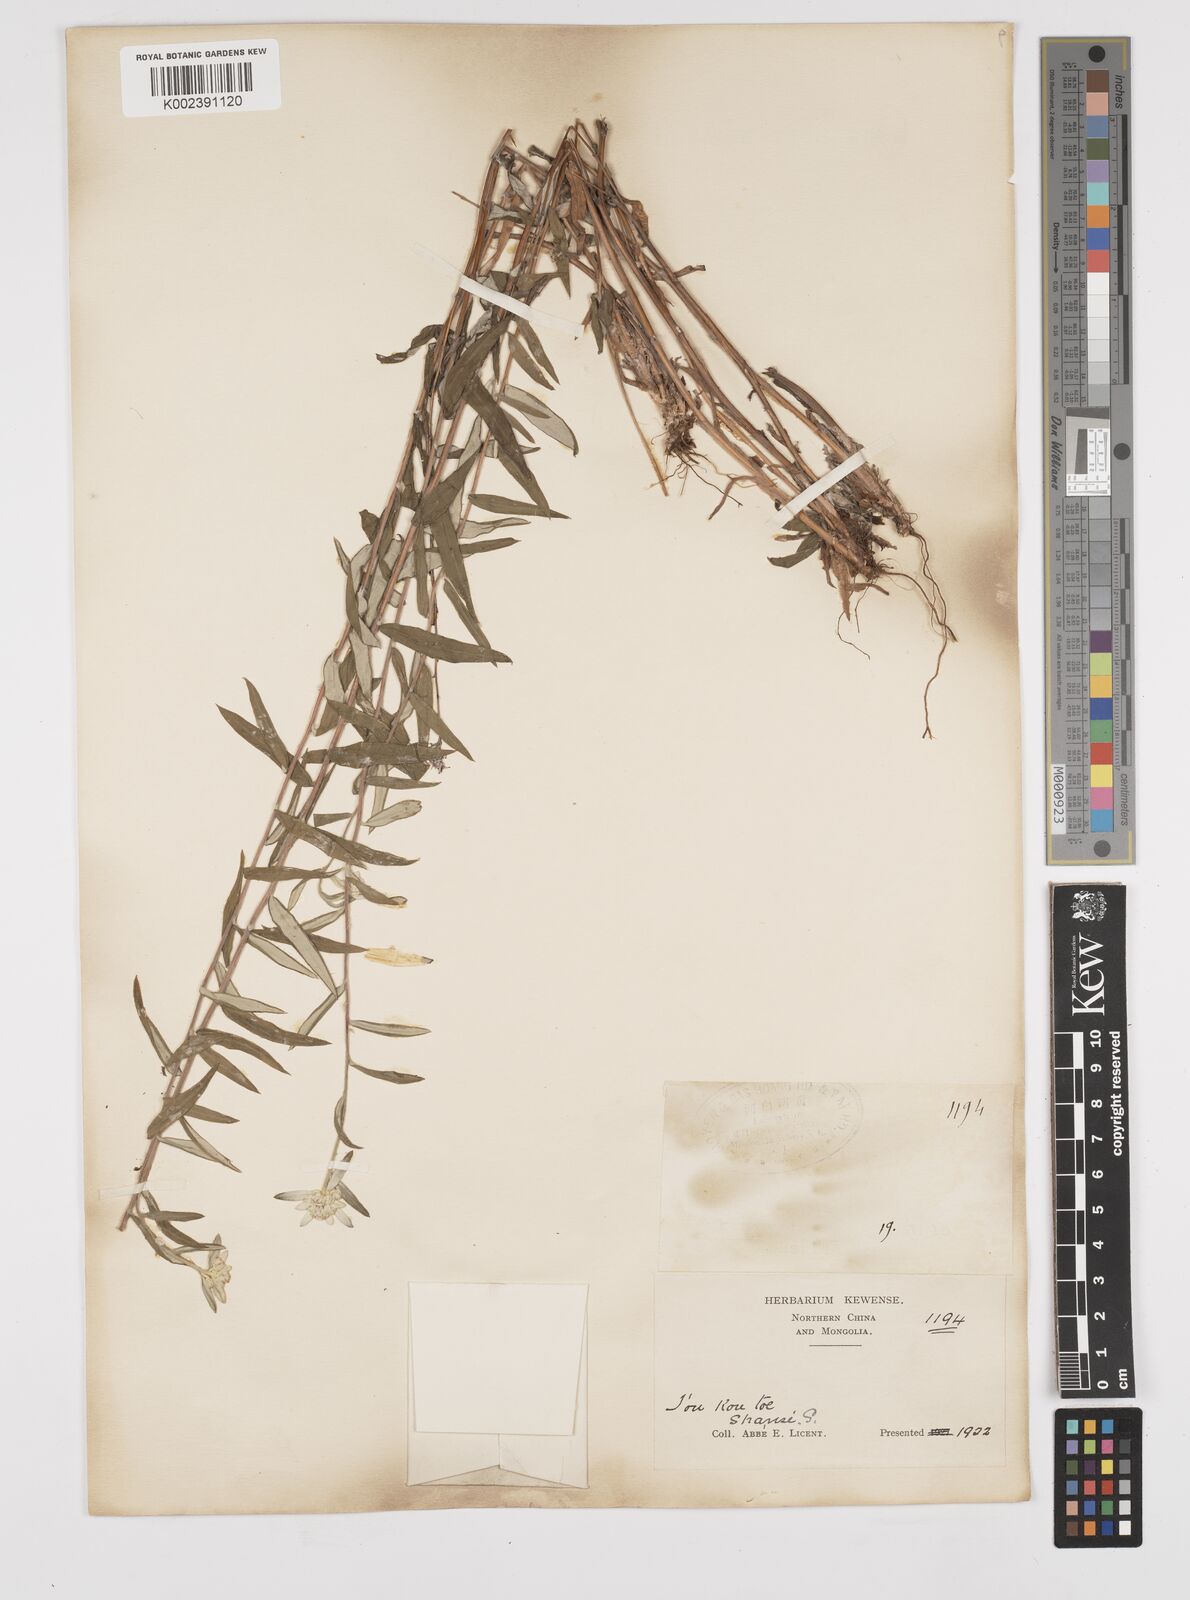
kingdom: Plantae
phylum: Tracheophyta
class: Magnoliopsida
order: Asterales
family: Asteraceae
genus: Anaphalis
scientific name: Anaphalis margaritacea
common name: Pearly everlasting
